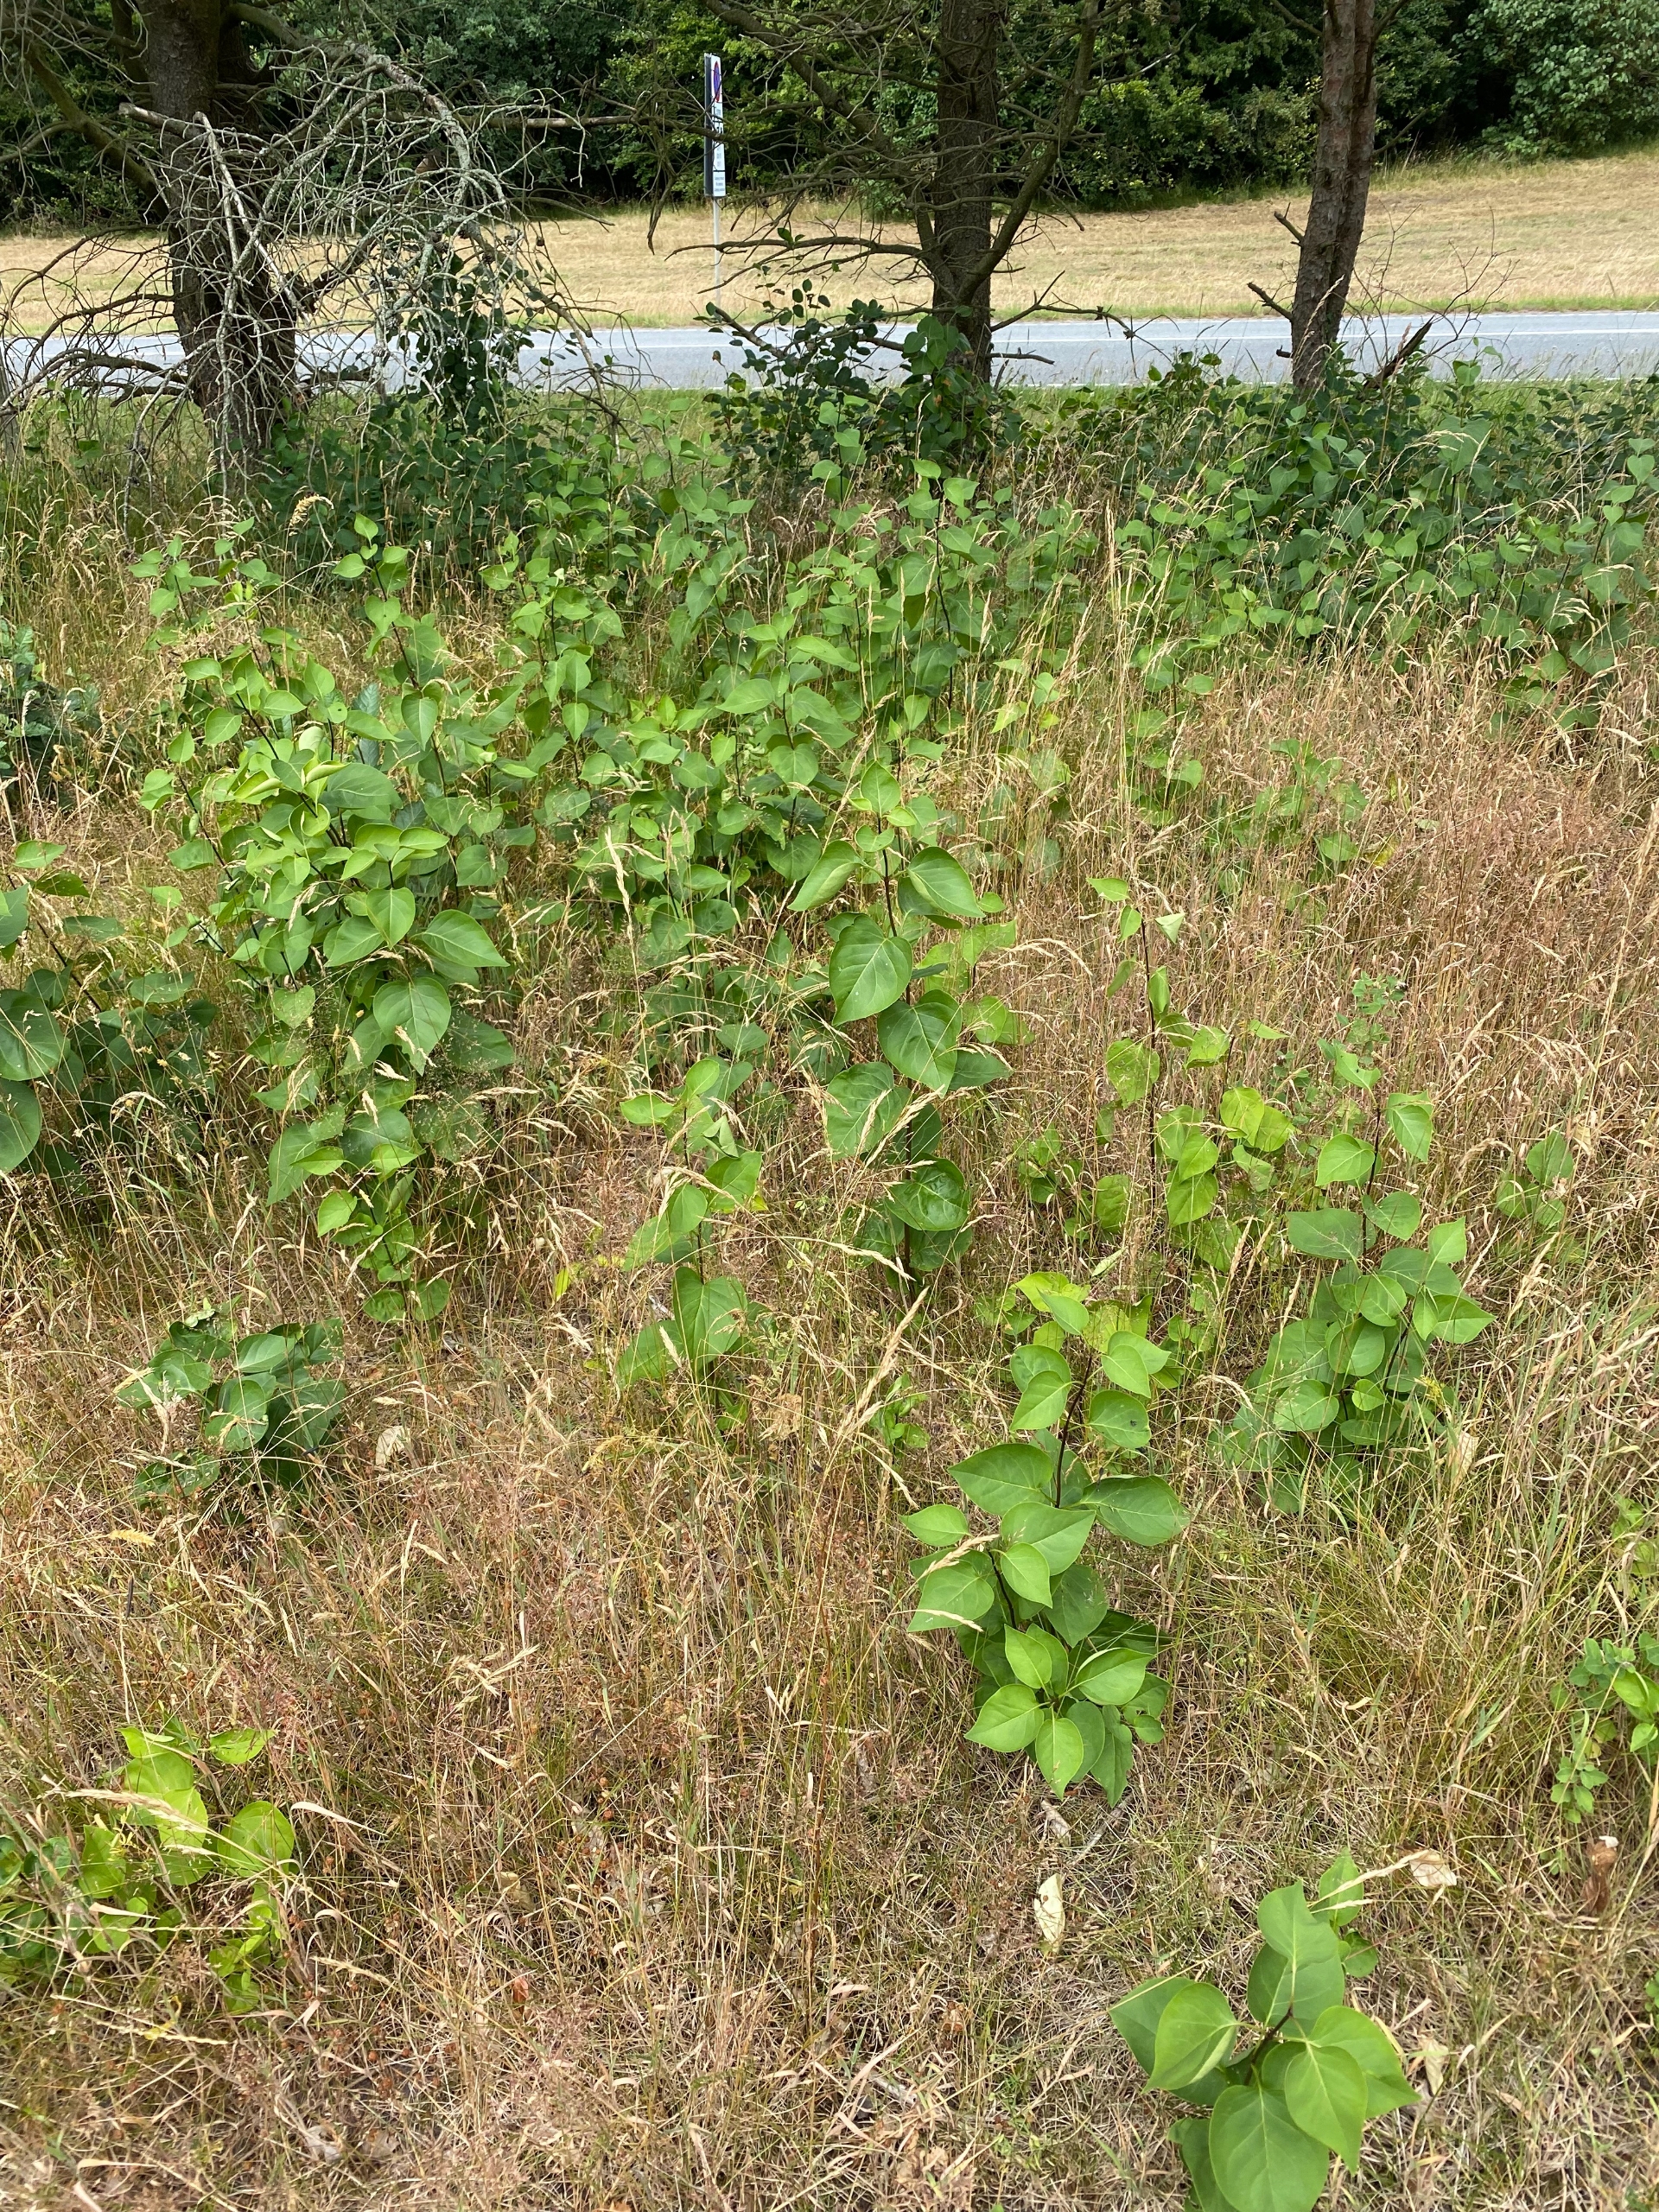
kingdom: Plantae
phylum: Tracheophyta
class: Magnoliopsida
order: Lamiales
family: Oleaceae
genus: Syringa
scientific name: Syringa vulgaris
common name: Syren
